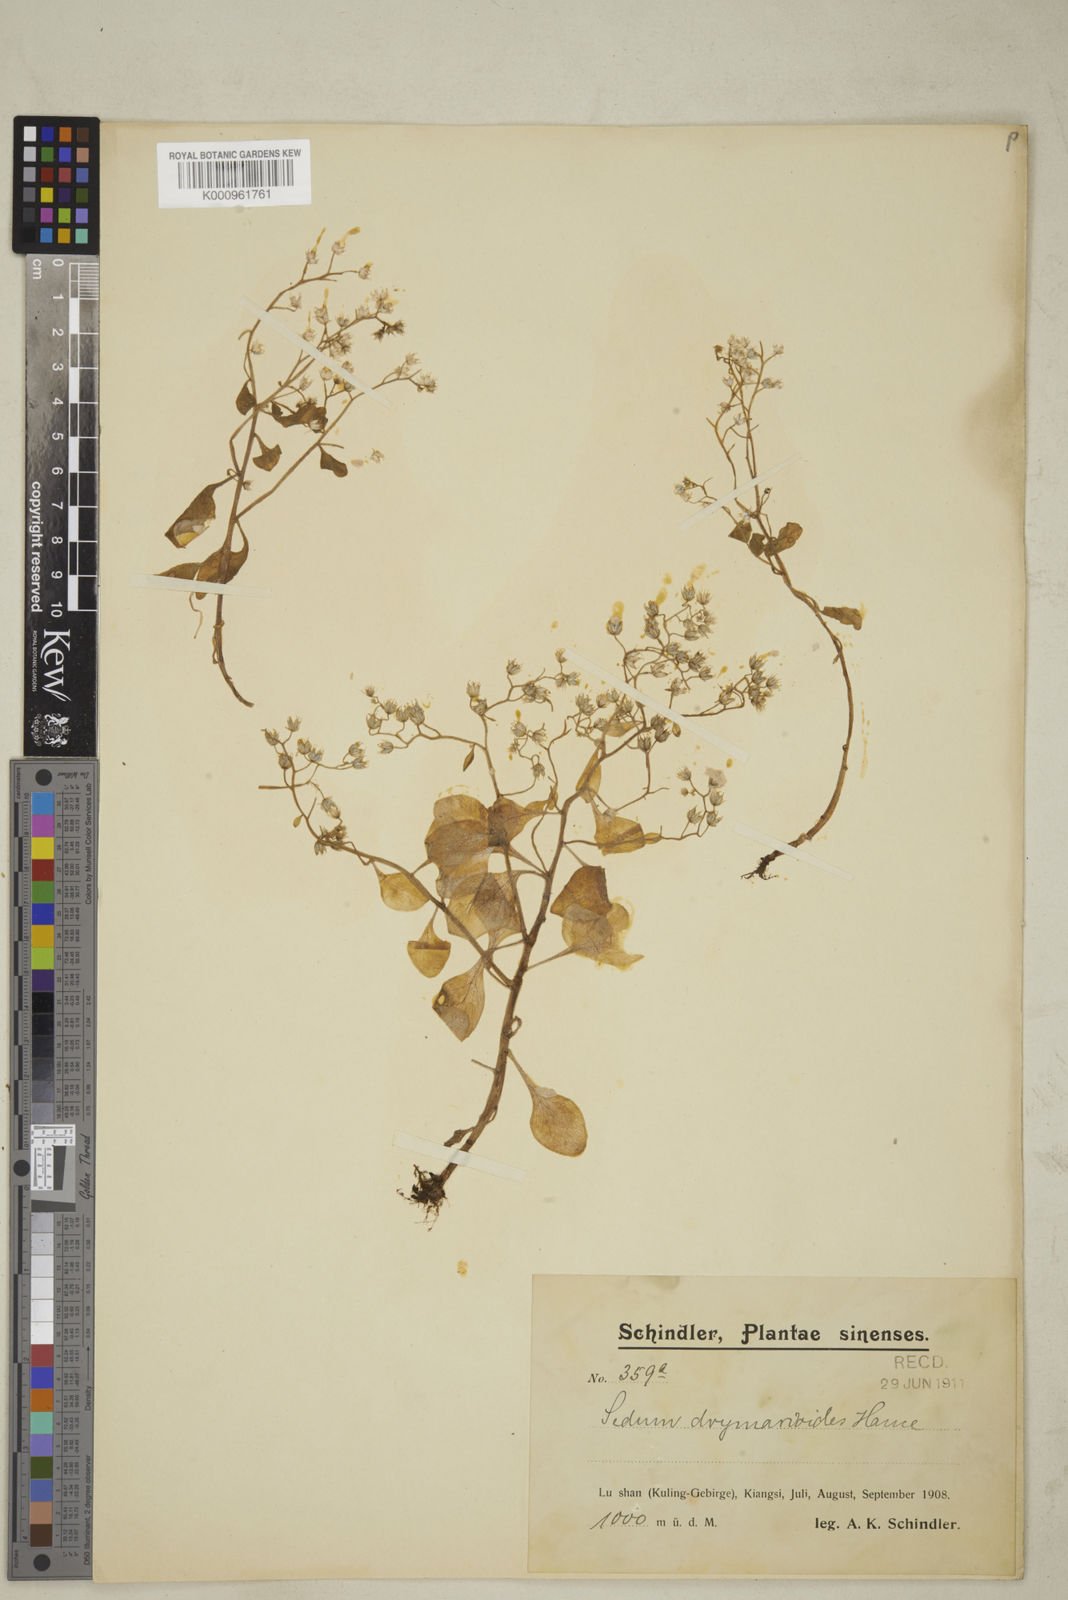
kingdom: Plantae
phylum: Tracheophyta
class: Magnoliopsida
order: Saxifragales
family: Crassulaceae
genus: Sedum
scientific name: Sedum drymarioides
